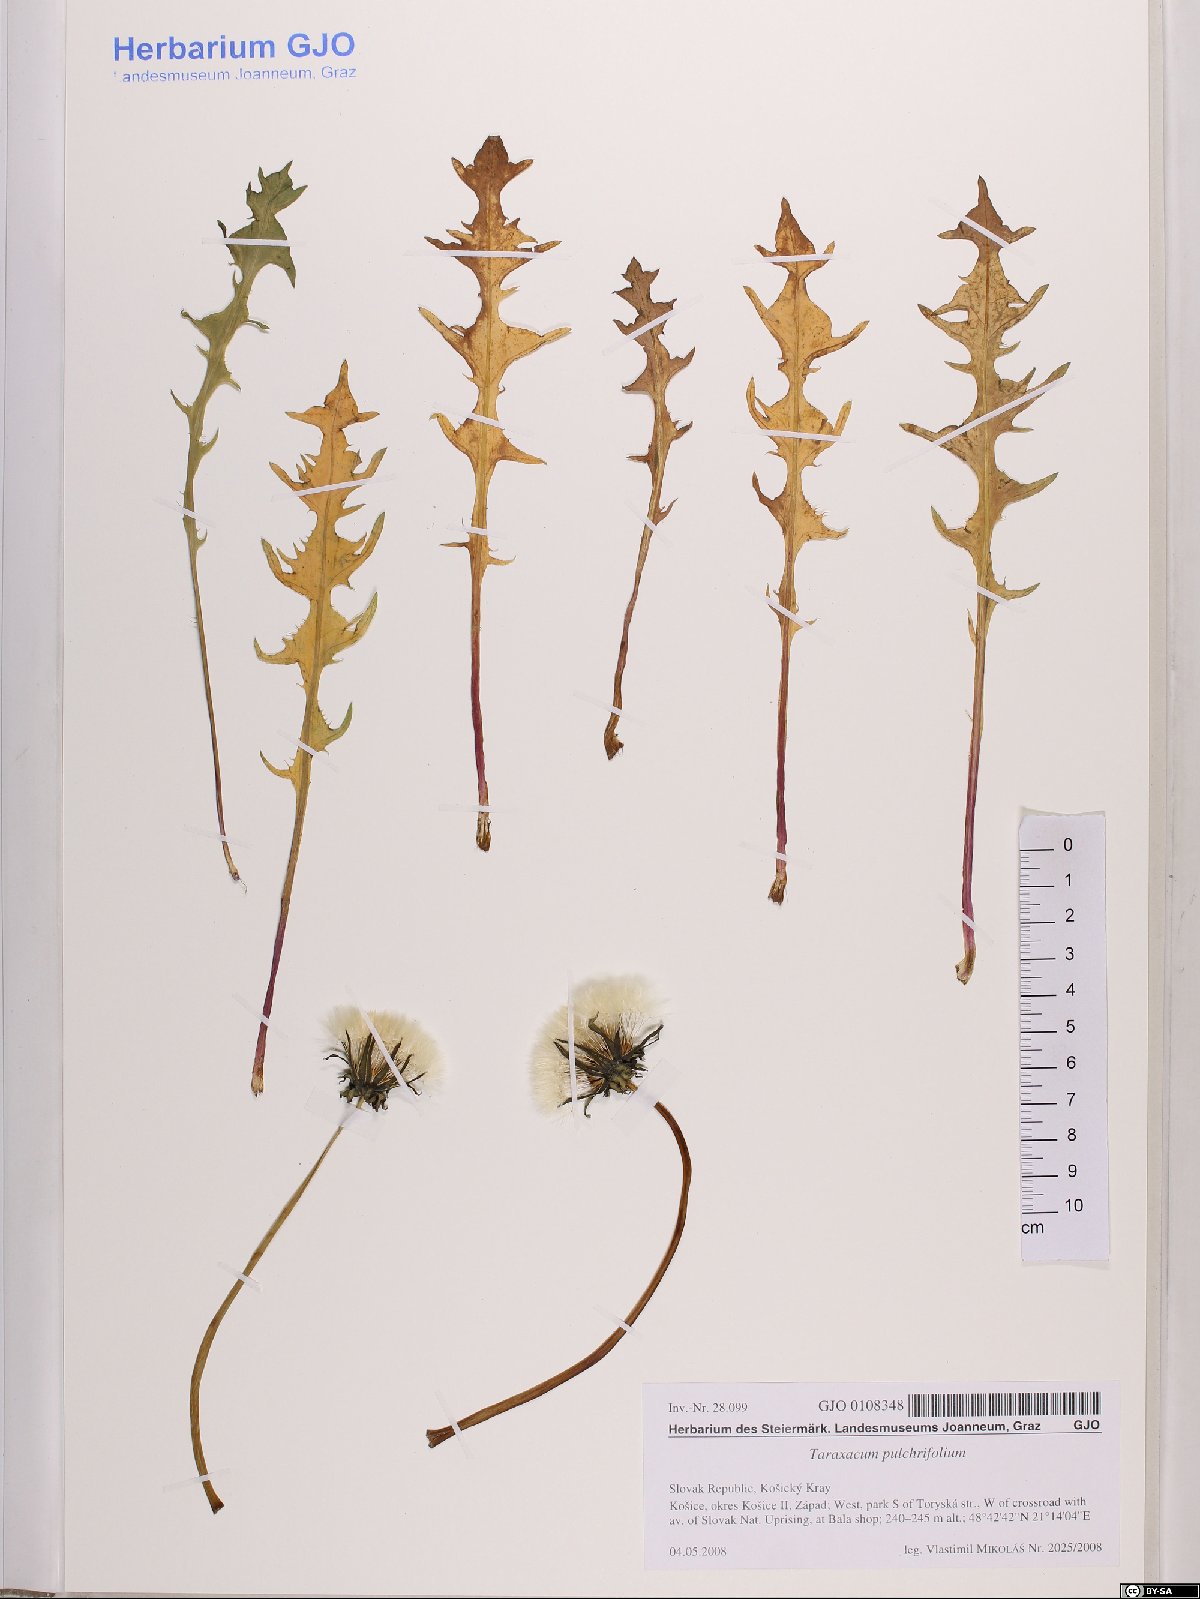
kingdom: Plantae
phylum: Tracheophyta
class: Magnoliopsida
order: Asterales
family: Asteraceae
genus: Taraxacum
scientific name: Taraxacum pulchrifolium
